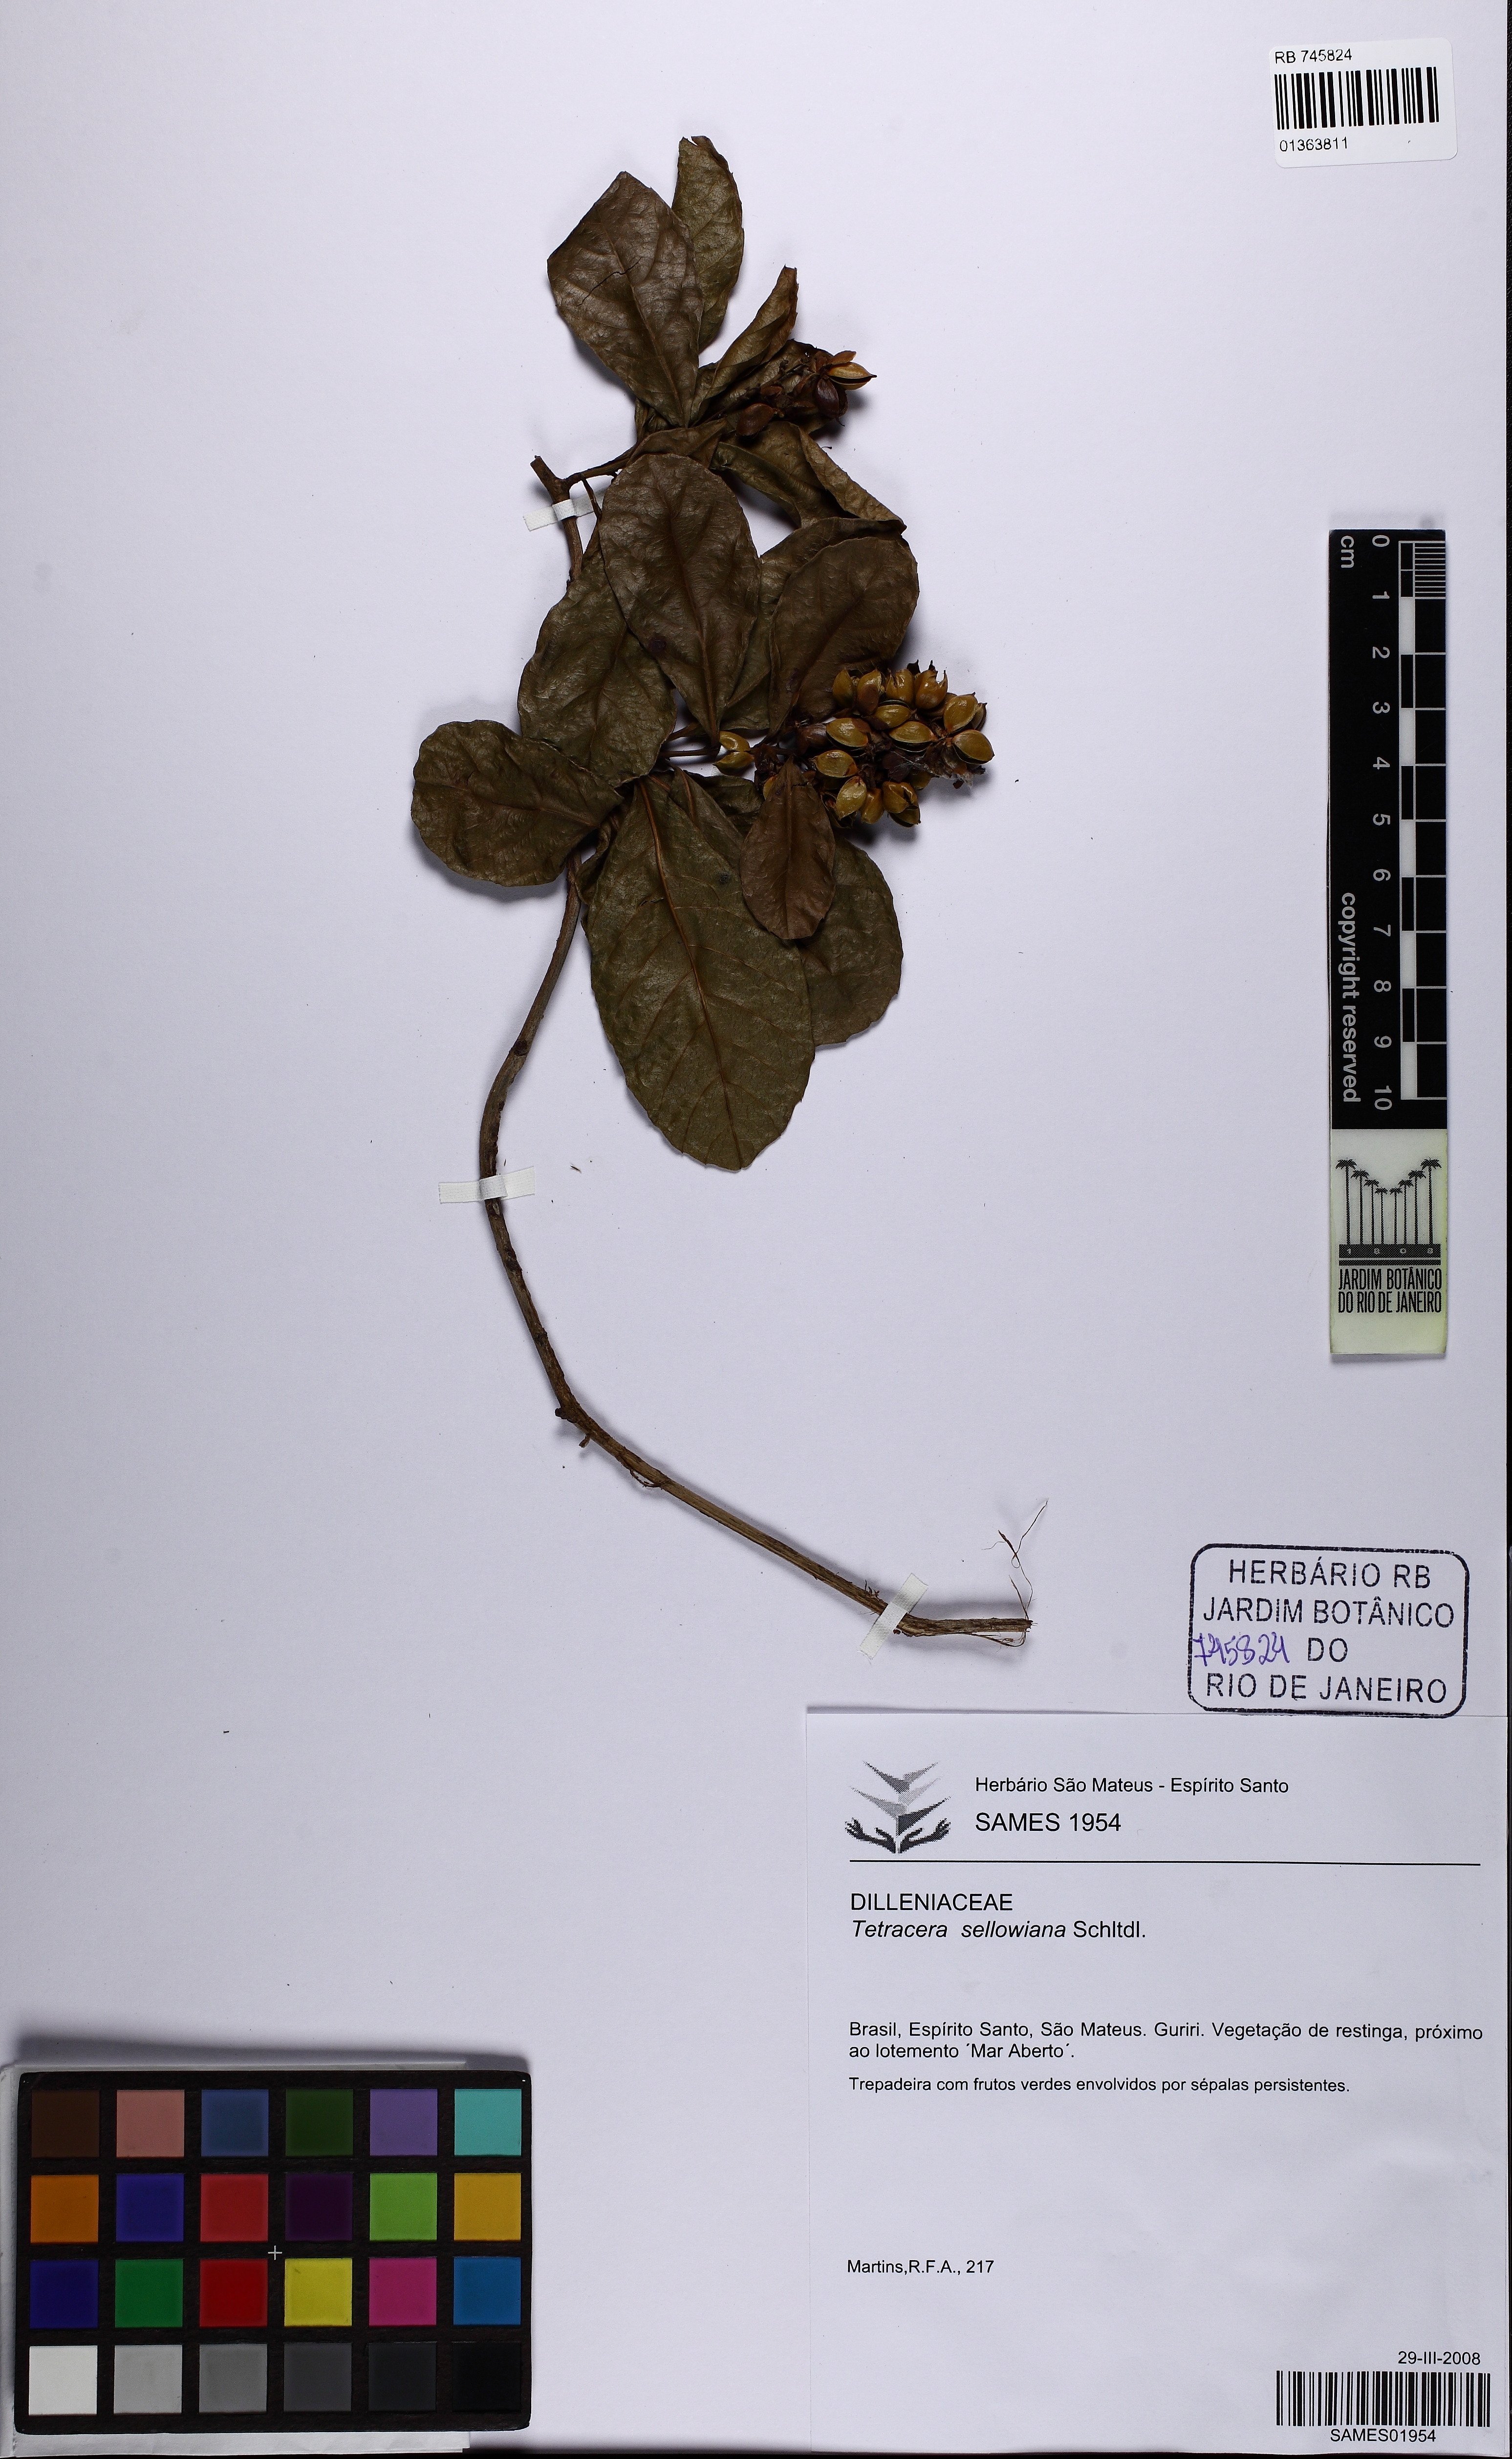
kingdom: Plantae
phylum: Tracheophyta
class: Magnoliopsida
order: Dilleniales
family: Dilleniaceae
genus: Tetracera
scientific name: Tetracera breyniana
